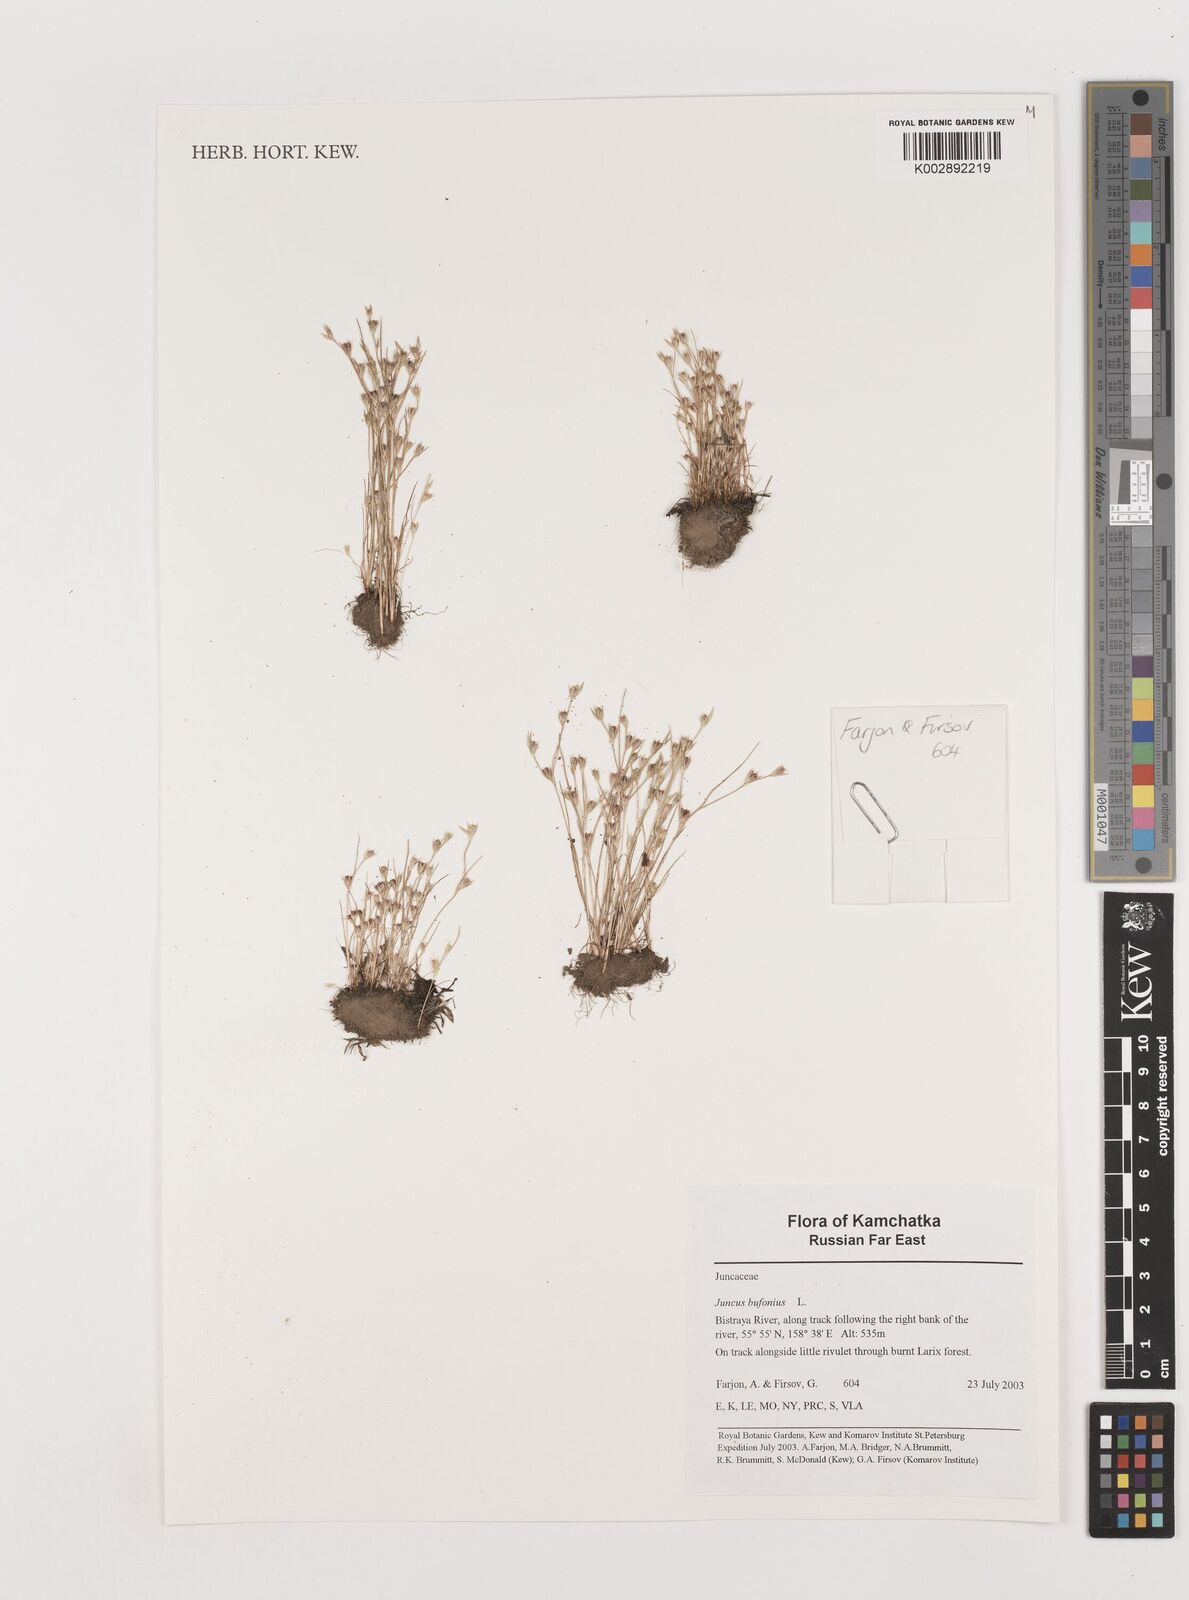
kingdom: Plantae
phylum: Tracheophyta
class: Liliopsida
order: Poales
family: Juncaceae
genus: Juncus
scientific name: Juncus bufonius
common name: Toad rush
